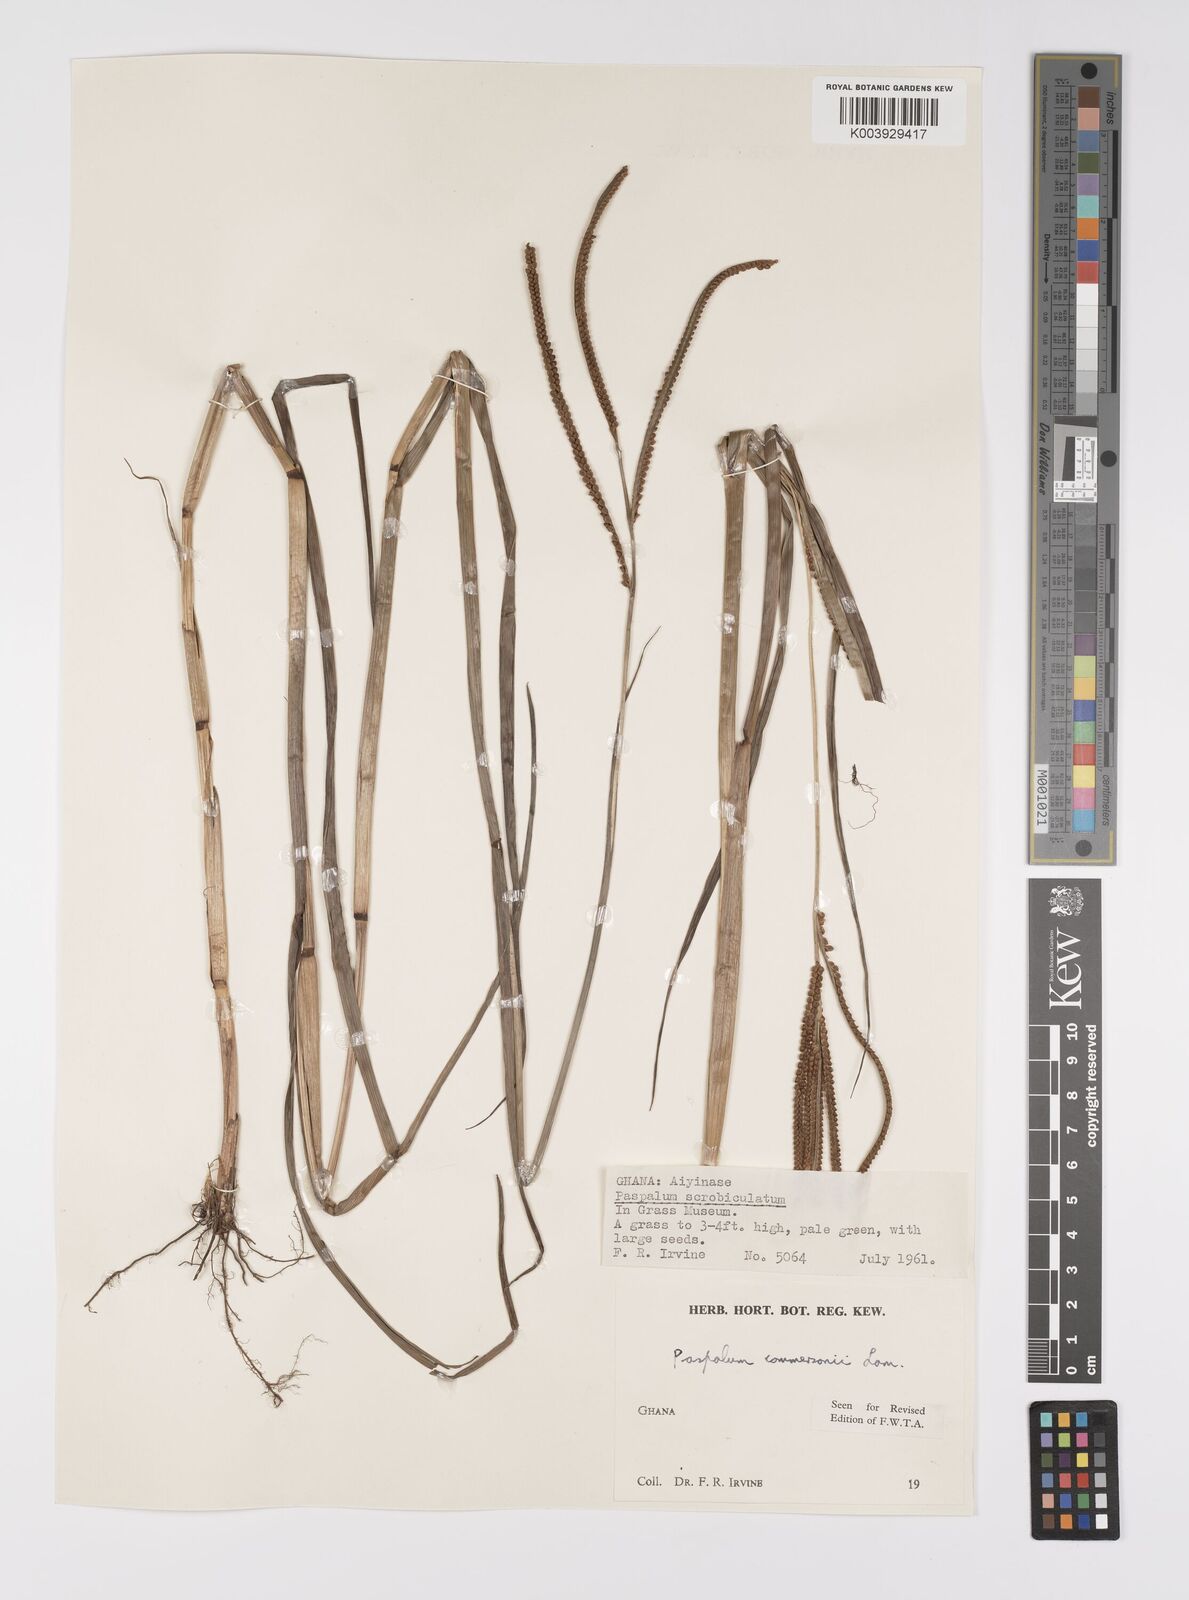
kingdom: Plantae
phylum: Tracheophyta
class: Liliopsida
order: Poales
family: Poaceae
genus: Paspalum
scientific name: Paspalum scrobiculatum
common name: Kodo millet
